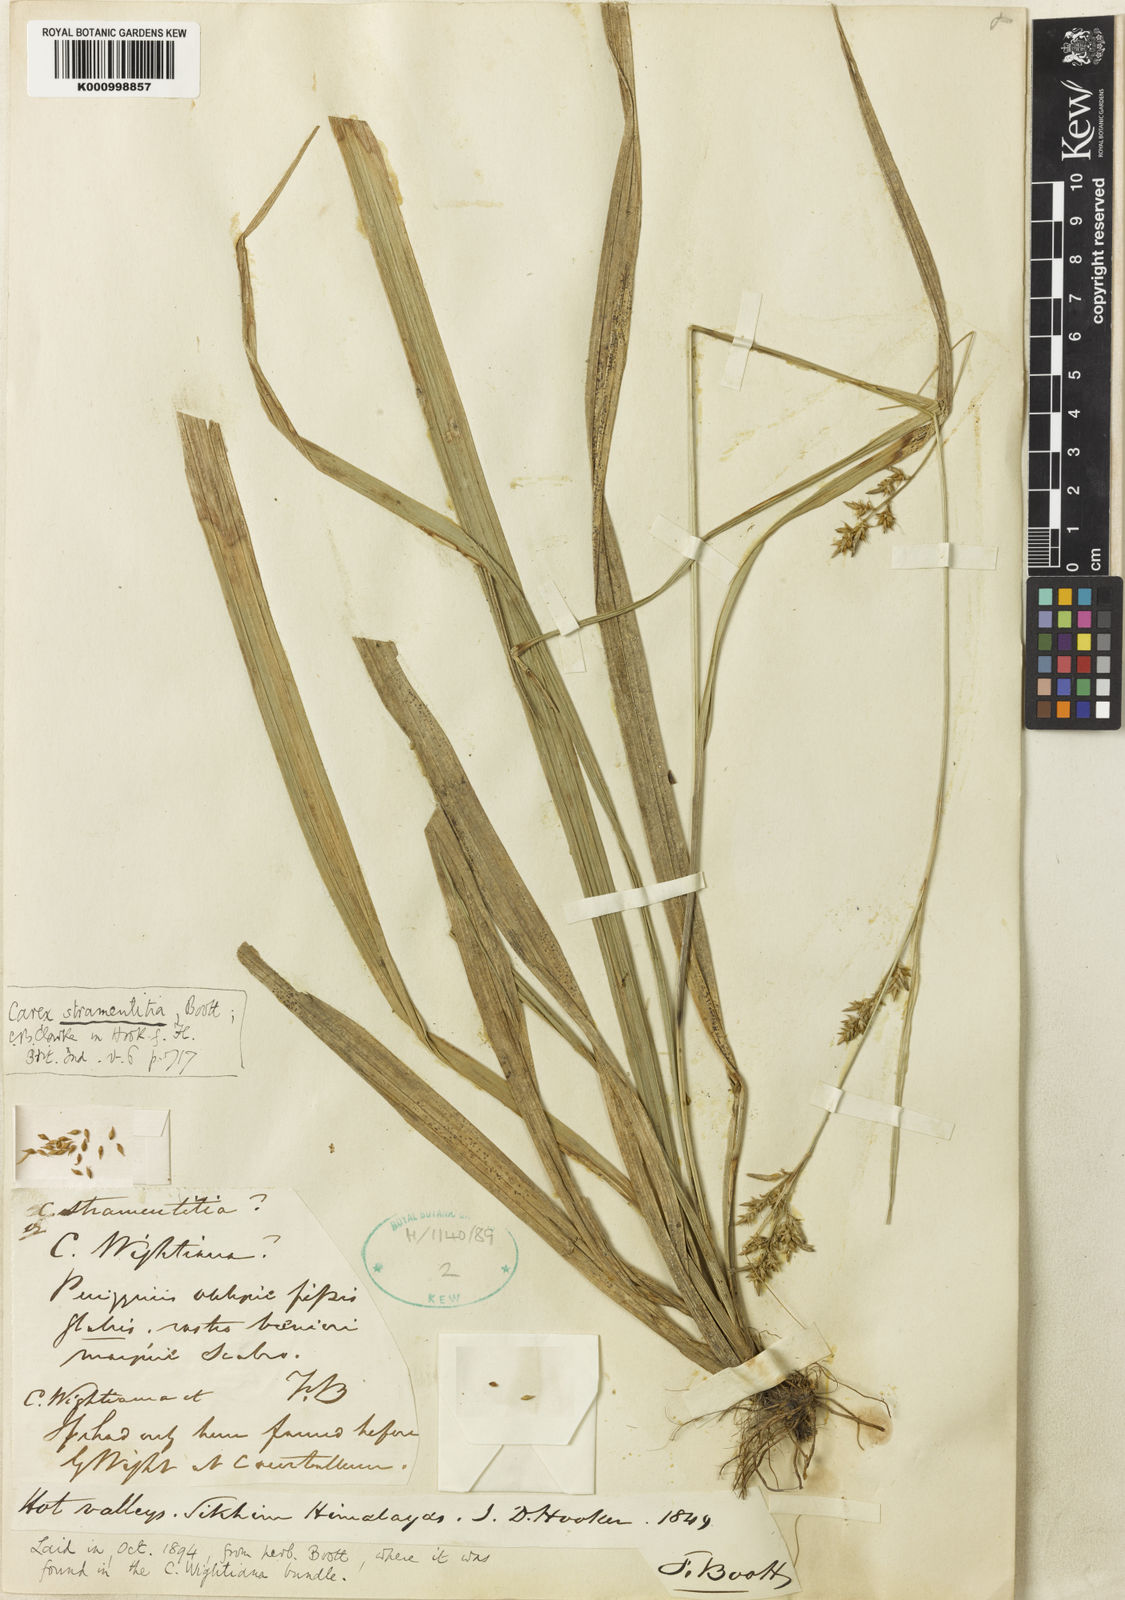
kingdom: Plantae
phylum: Tracheophyta
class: Liliopsida
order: Poales
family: Cyperaceae
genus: Carex
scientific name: Carex stramentitia
